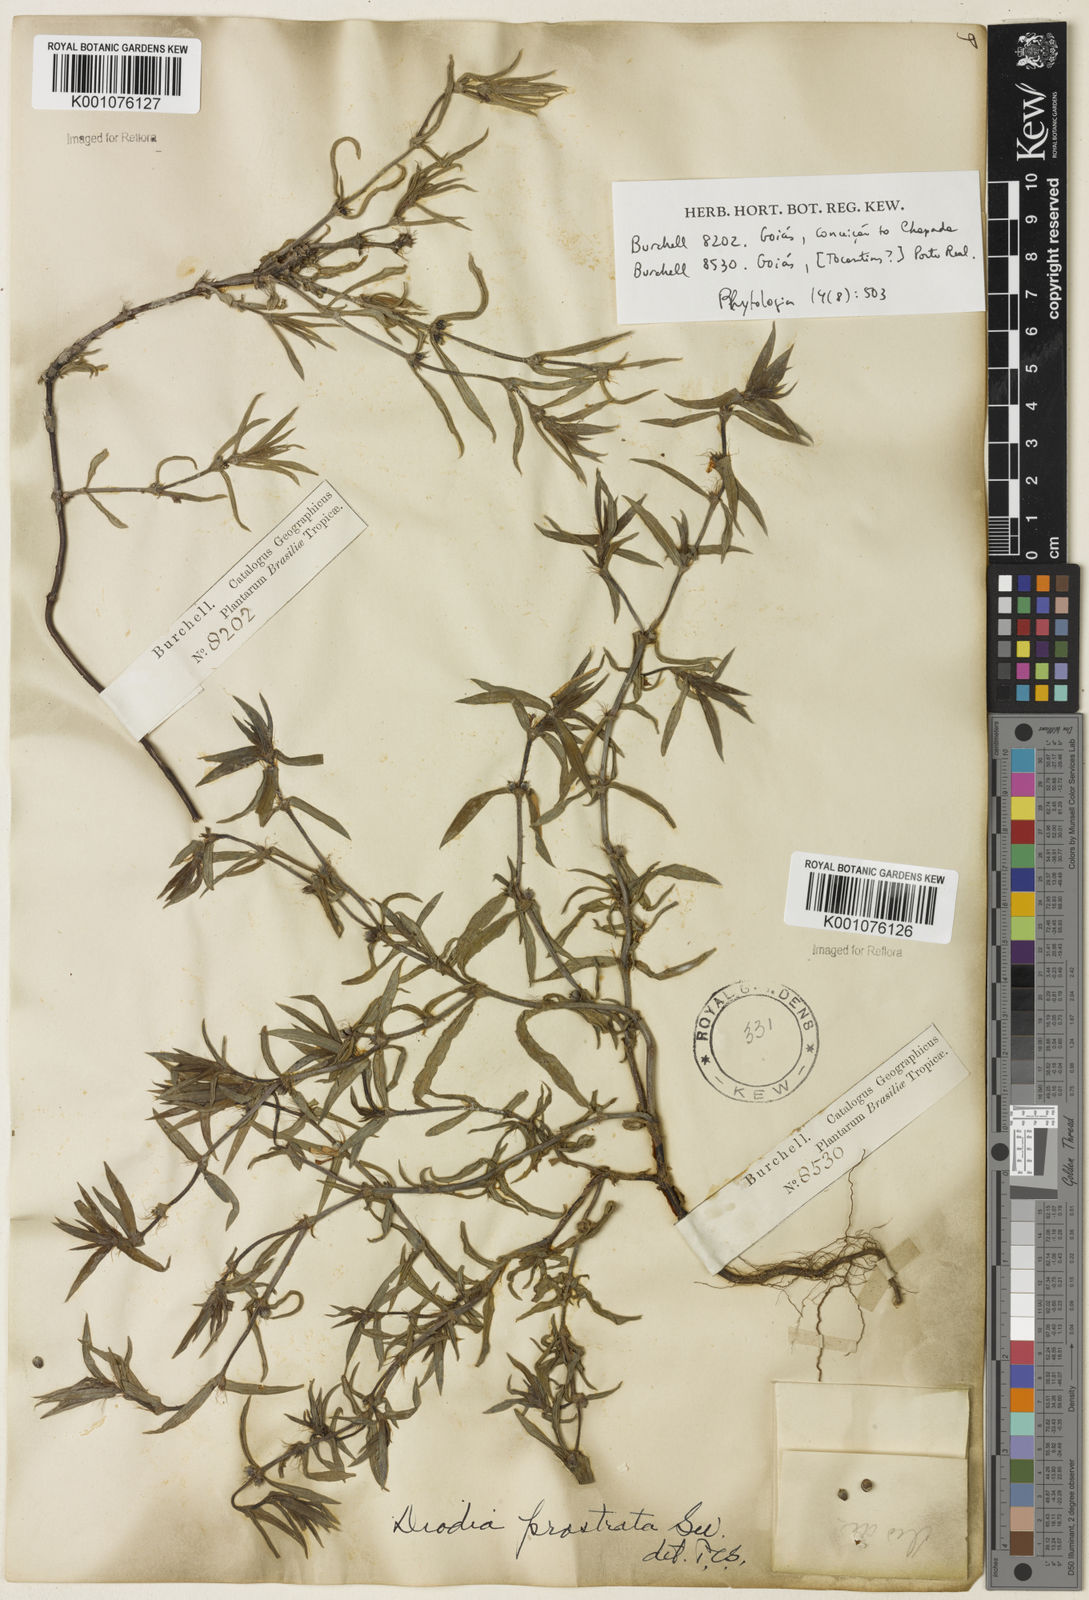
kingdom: Plantae
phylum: Tracheophyta
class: Magnoliopsida
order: Gentianales
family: Rubiaceae
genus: Hexasepalum
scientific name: Hexasepalum teres
